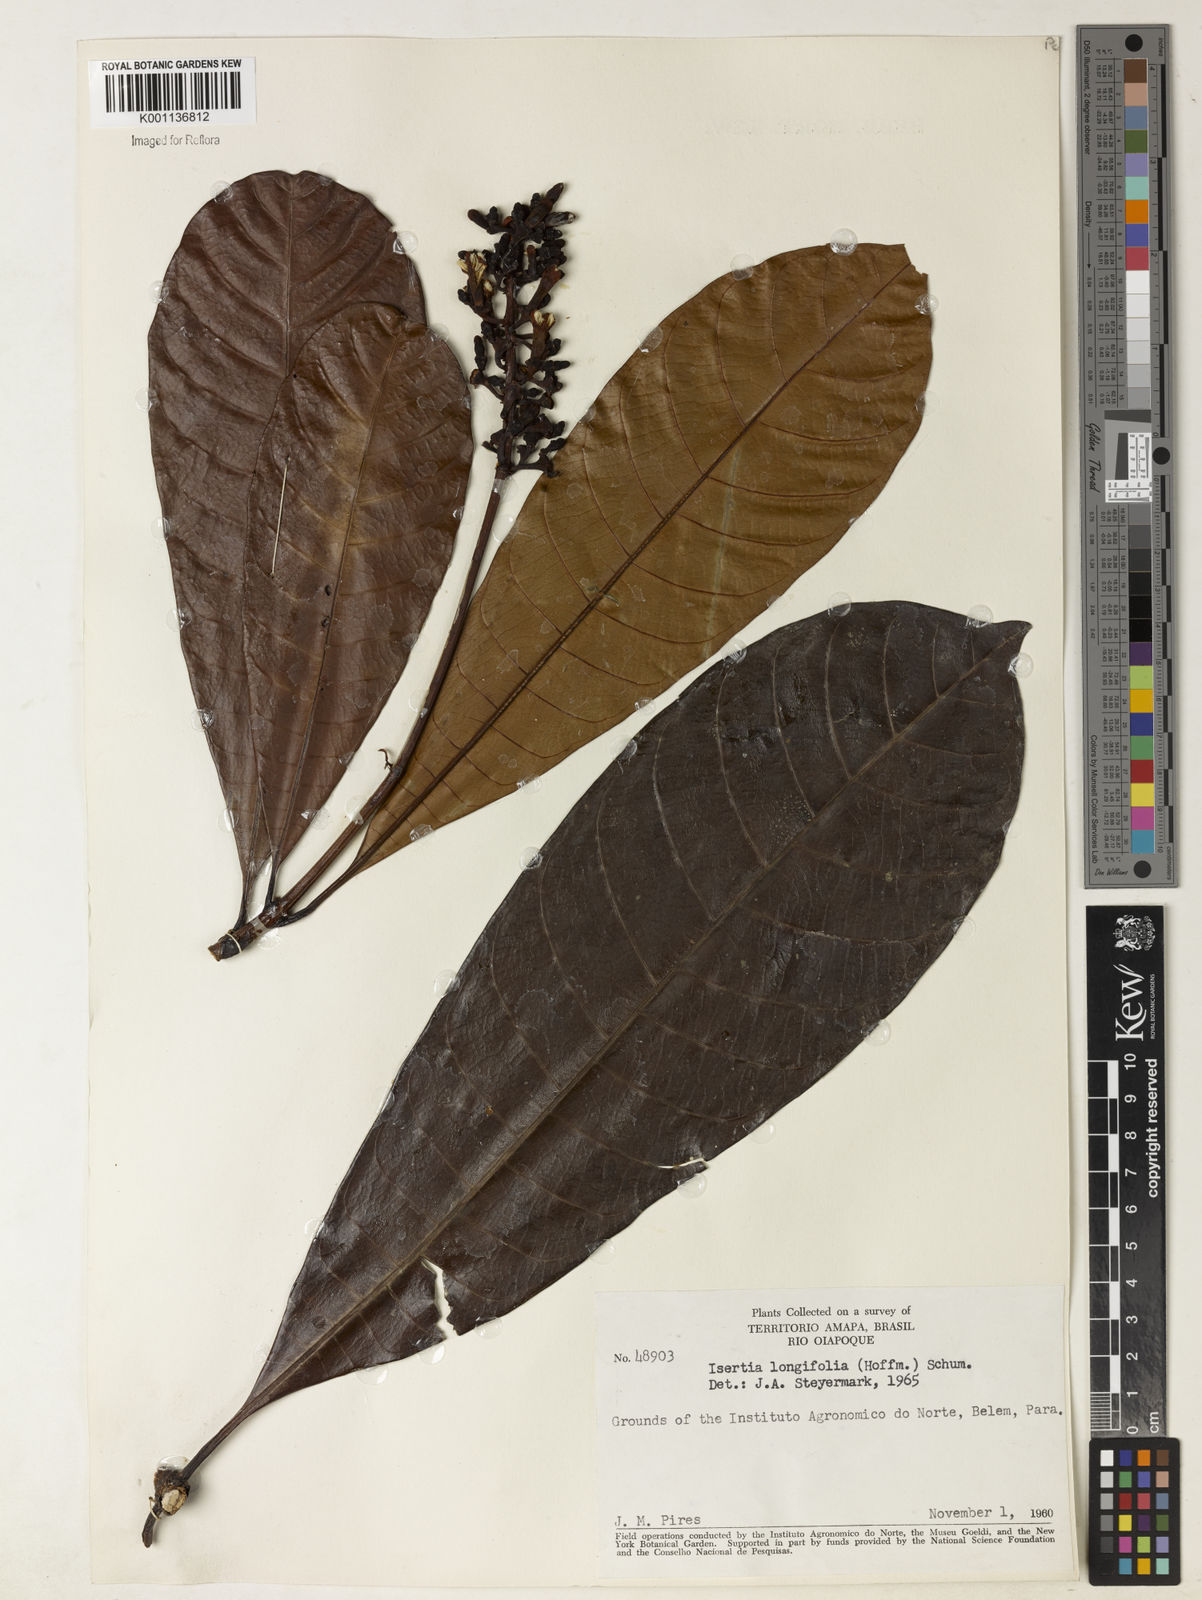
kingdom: Plantae
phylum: Tracheophyta
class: Magnoliopsida
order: Gentianales
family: Rubiaceae
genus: Isertia
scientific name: Isertia longifolia
